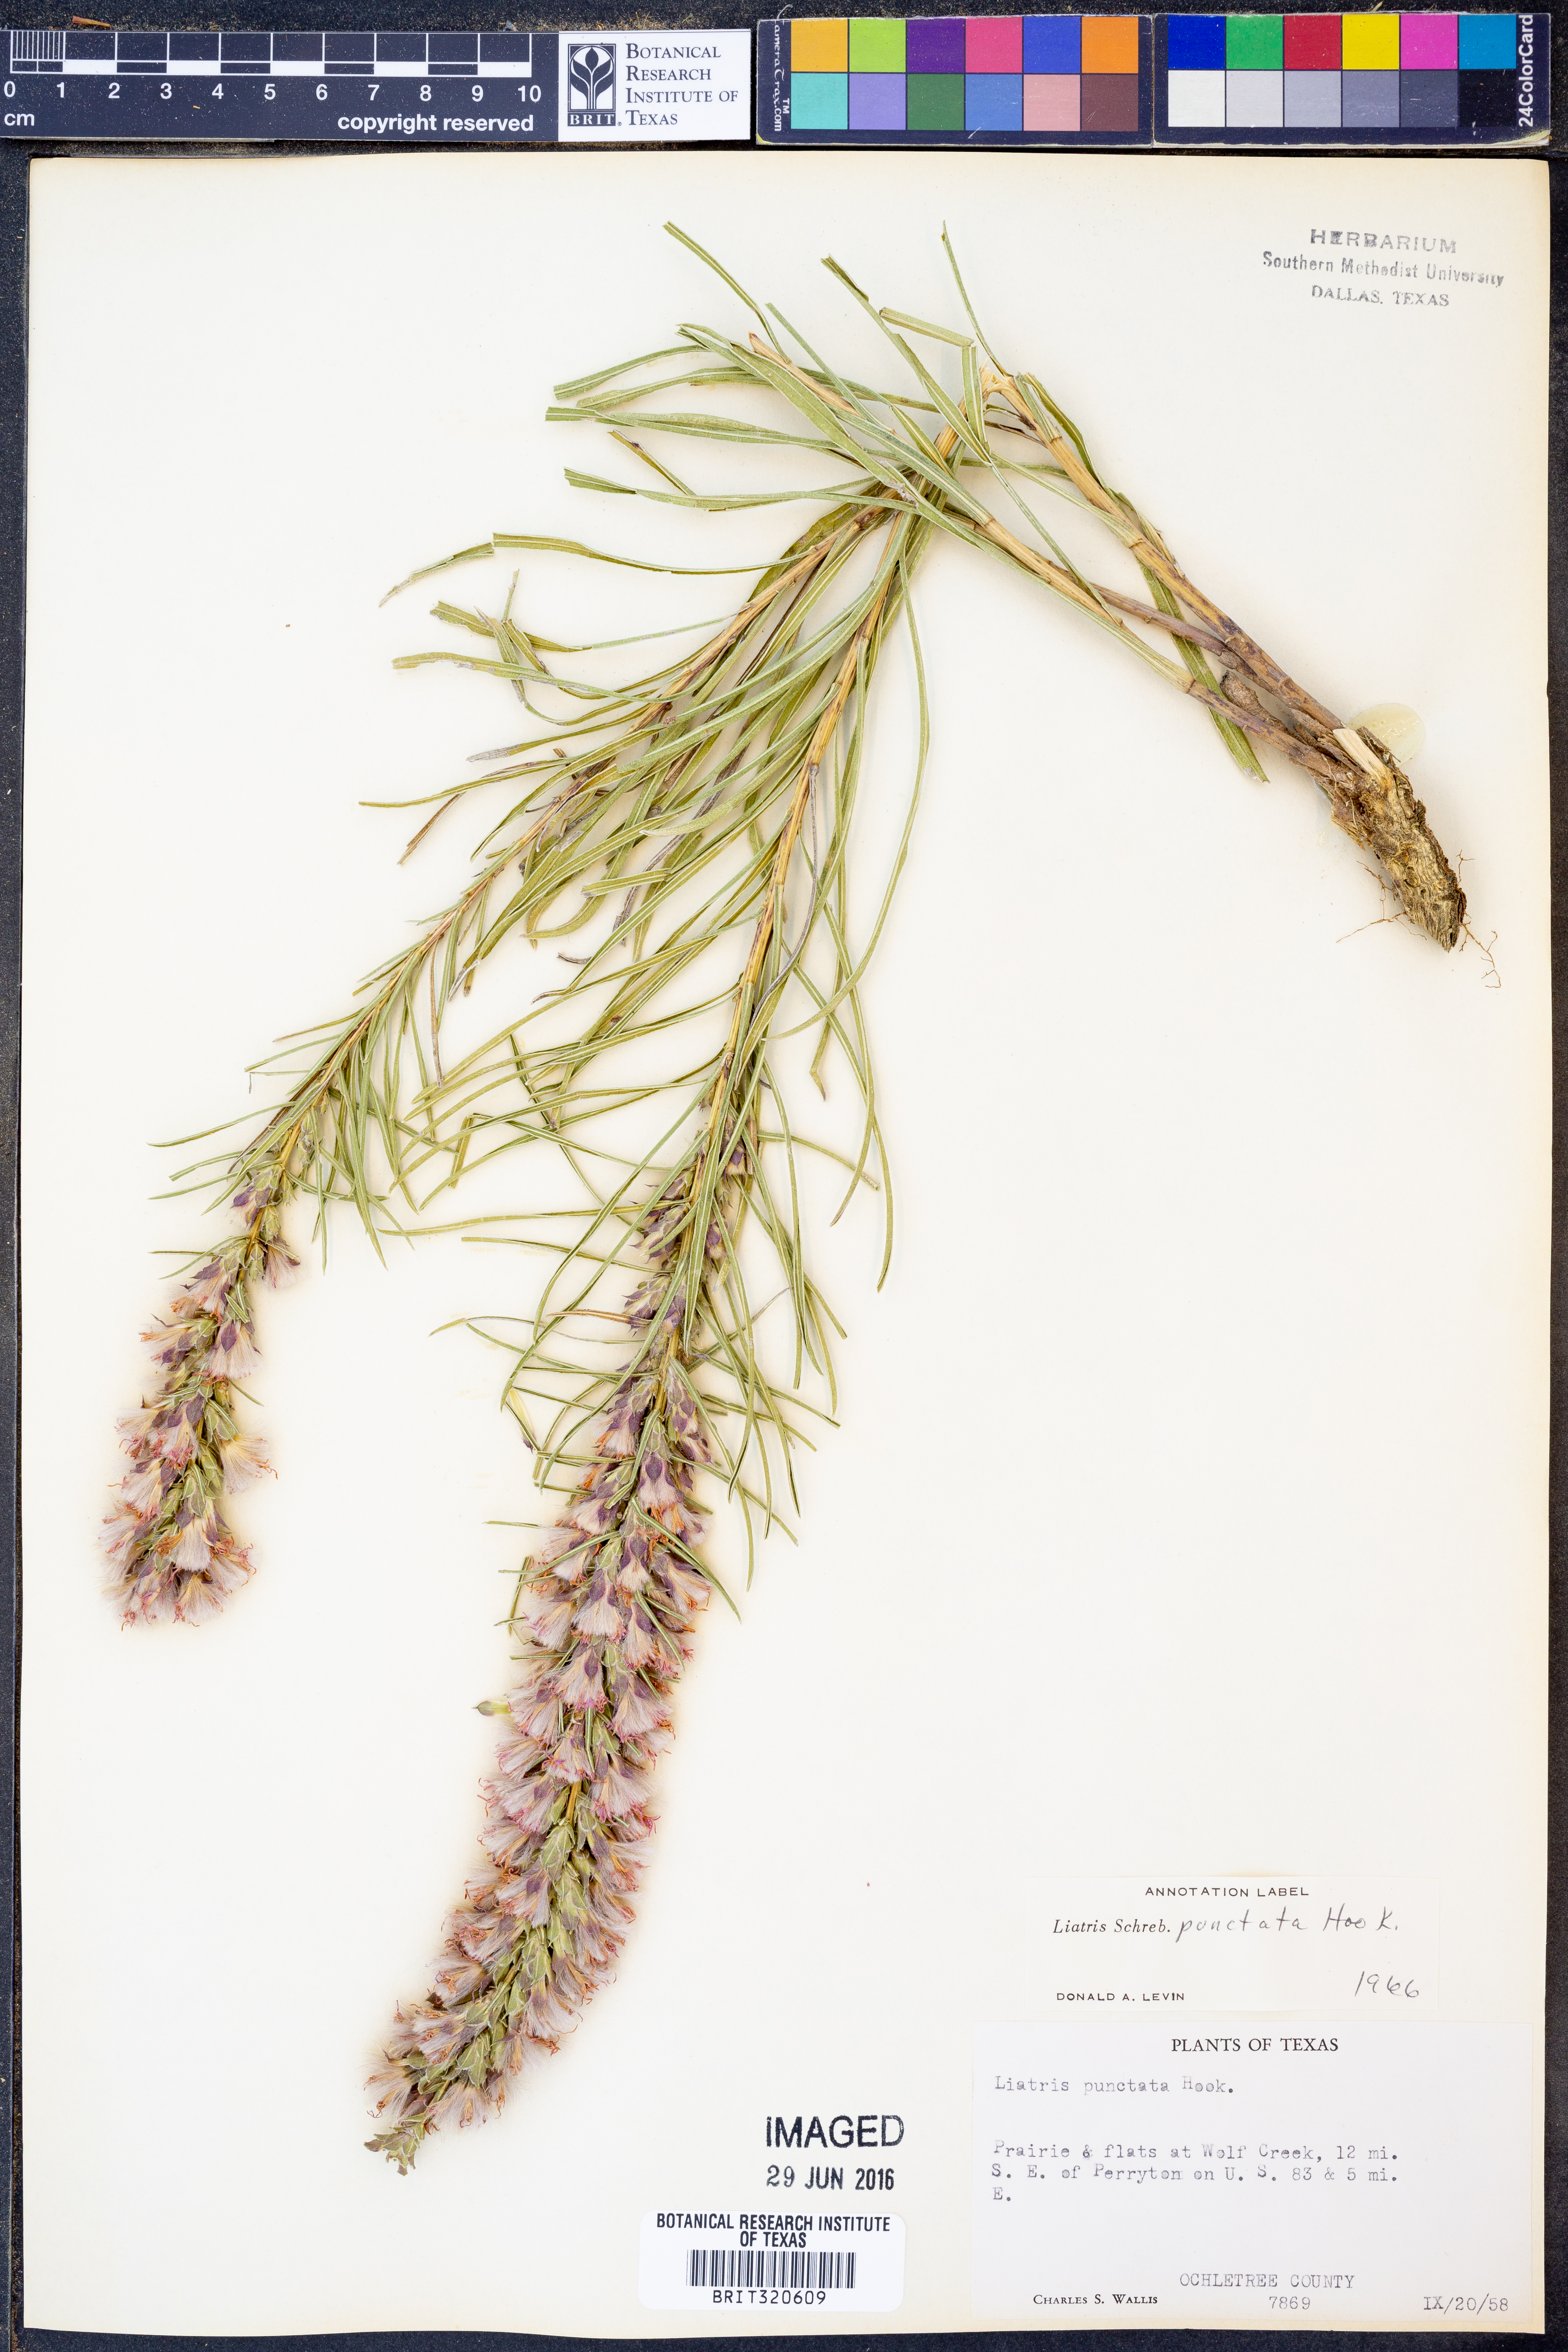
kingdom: Plantae
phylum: Tracheophyta
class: Magnoliopsida
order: Asterales
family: Asteraceae
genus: Liatris
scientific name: Liatris punctata
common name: Dotted gayfeather
